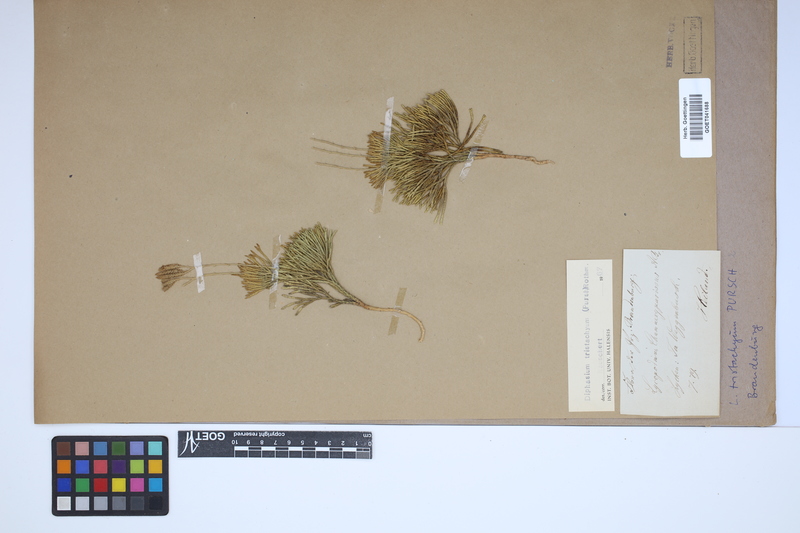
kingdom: Plantae
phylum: Tracheophyta
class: Lycopodiopsida
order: Lycopodiales
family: Lycopodiaceae
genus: Diphasiastrum
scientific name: Diphasiastrum tristachyum
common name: Blue ground-cedar
